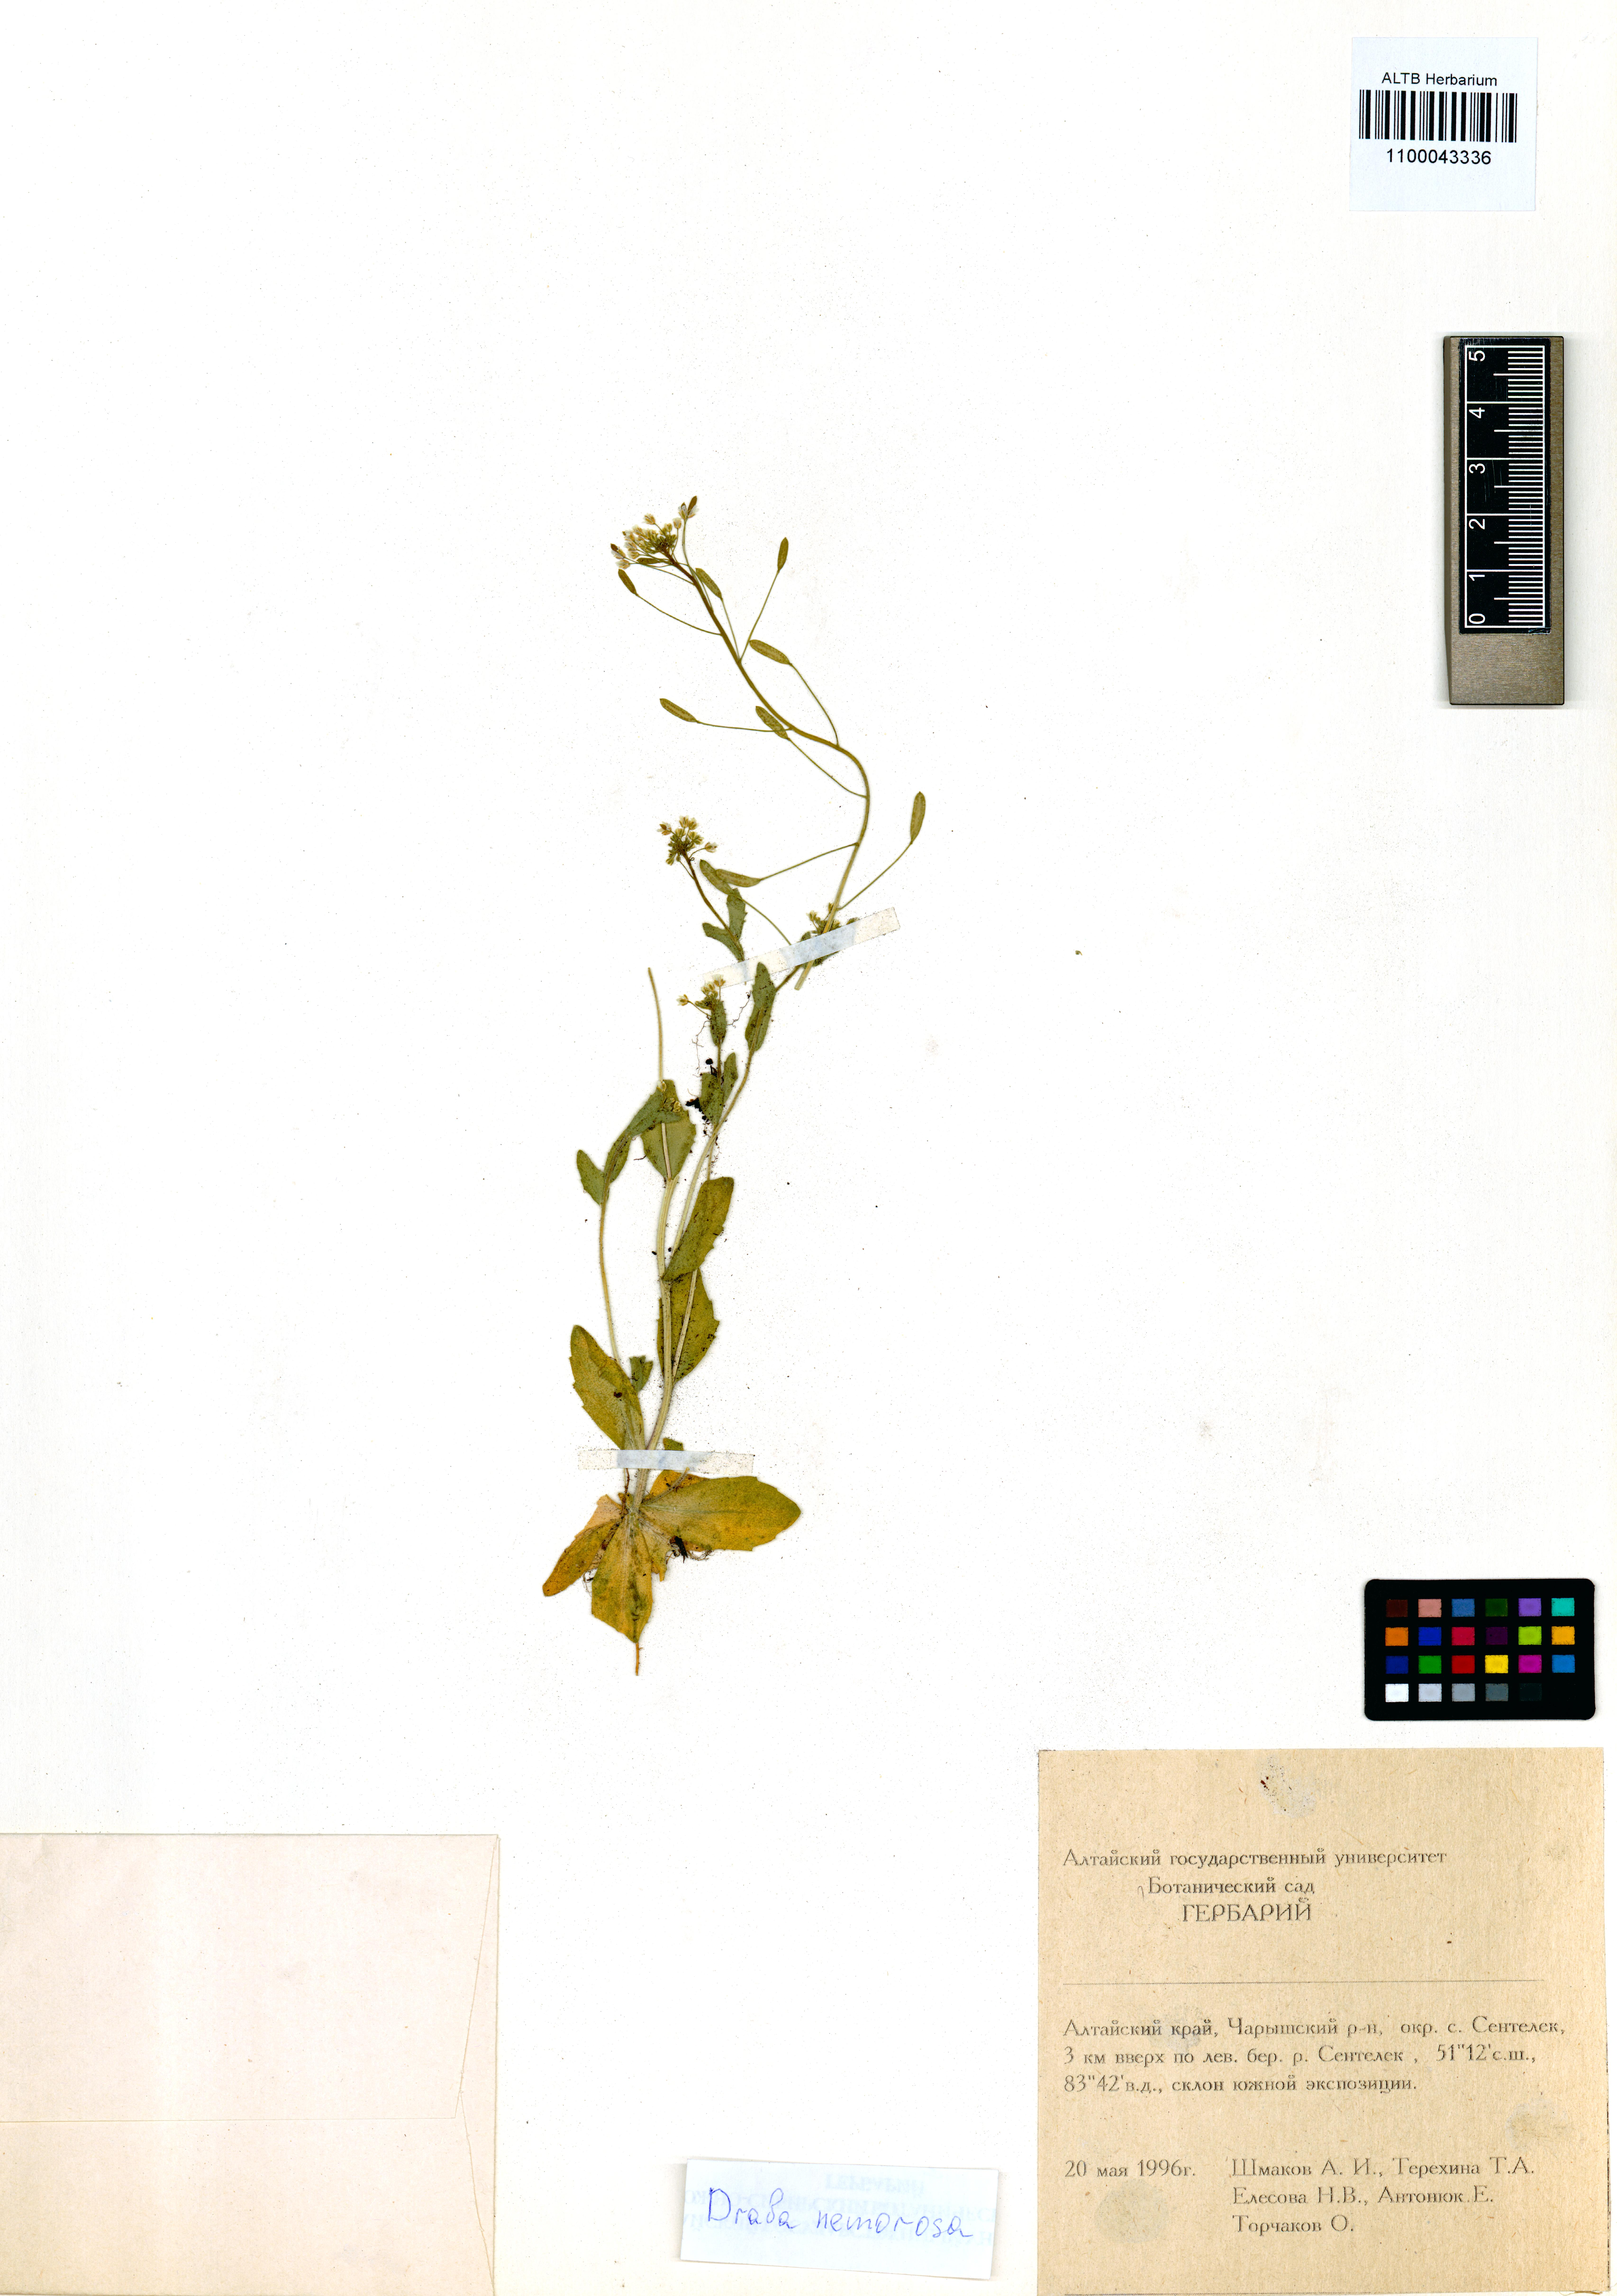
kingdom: Plantae
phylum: Tracheophyta
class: Magnoliopsida
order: Brassicales
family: Brassicaceae
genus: Draba
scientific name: Draba nemorosa
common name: Wood whitlow-grass
